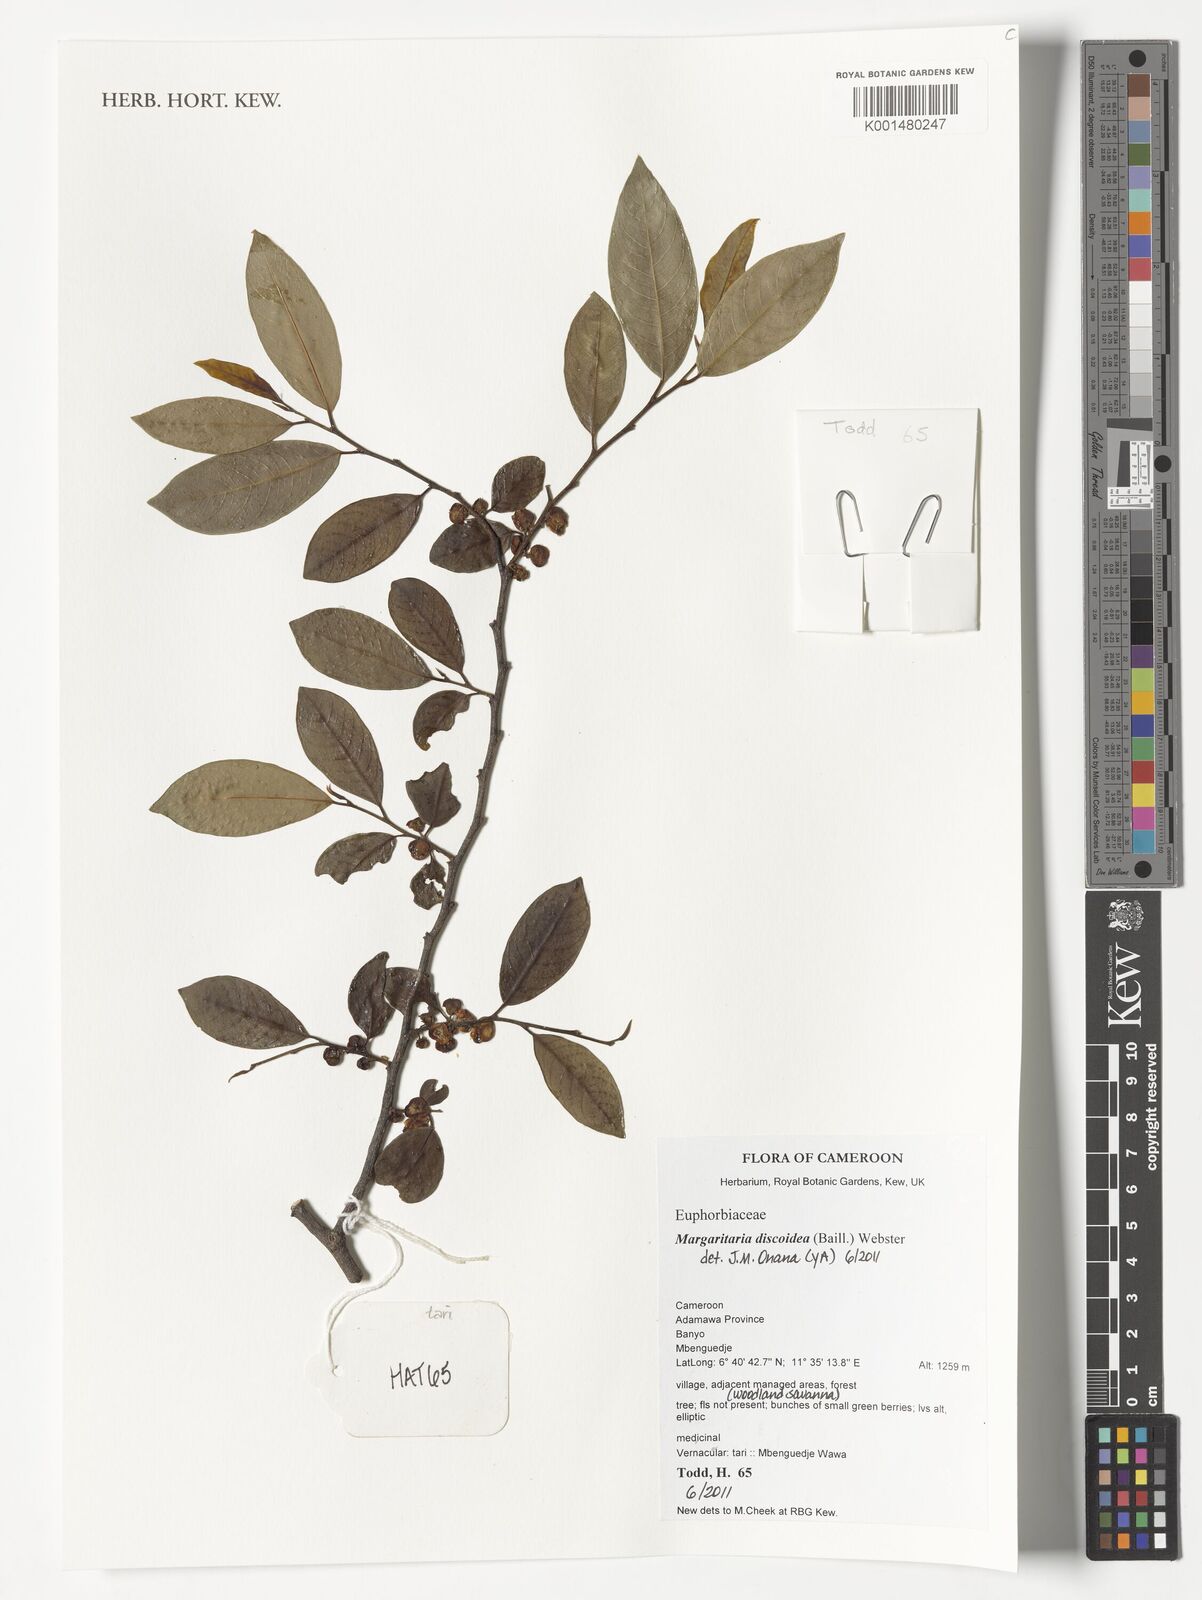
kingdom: Plantae
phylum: Tracheophyta
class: Magnoliopsida
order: Malpighiales
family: Phyllanthaceae
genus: Margaritaria
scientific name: Margaritaria discoidea
